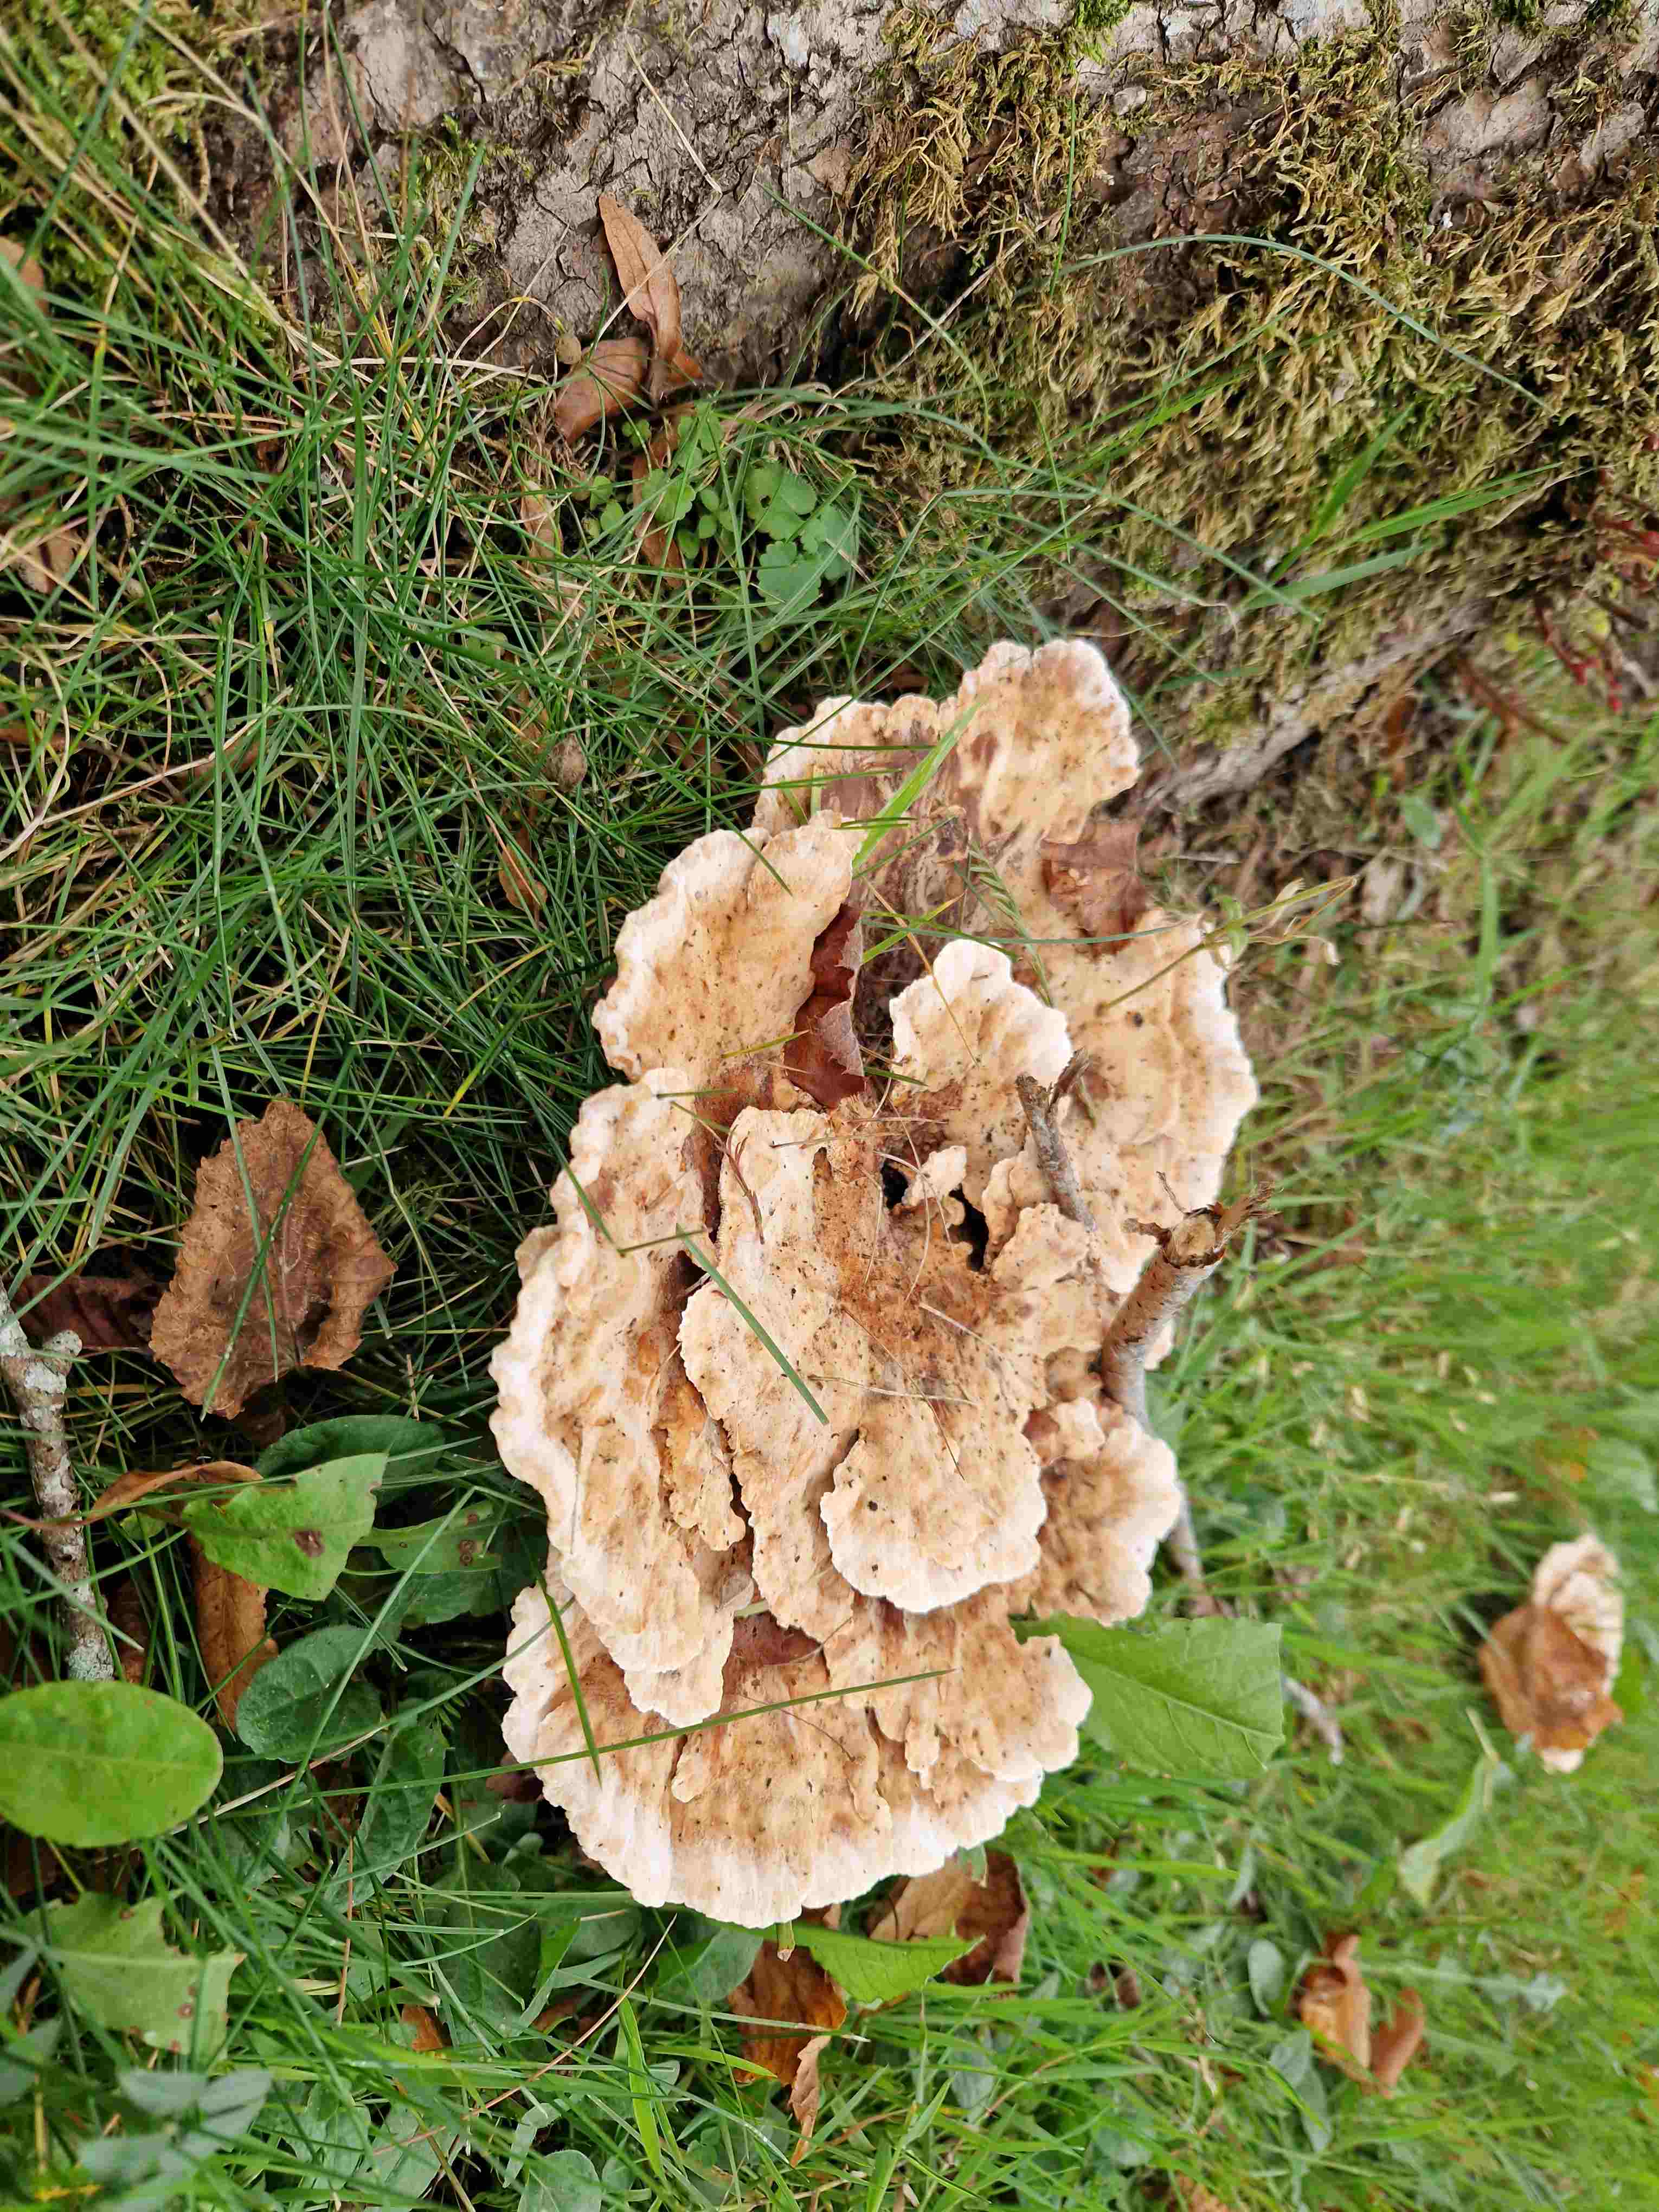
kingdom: Fungi
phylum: Basidiomycota
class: Agaricomycetes
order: Polyporales
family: Podoscyphaceae
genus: Abortiporus
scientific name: Abortiporus biennis
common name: rødmende pjalteporesvamp
